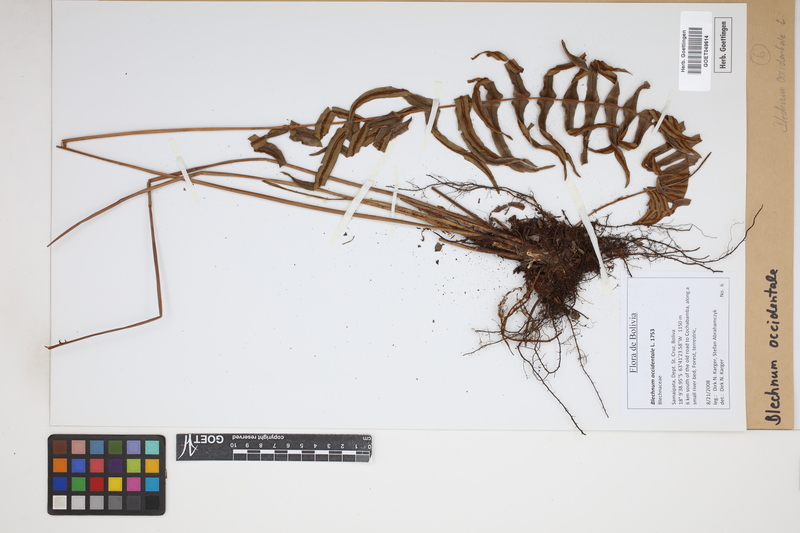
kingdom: Plantae
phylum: Tracheophyta
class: Polypodiopsida
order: Polypodiales
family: Blechnaceae
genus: Blechnum
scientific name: Blechnum occidentale
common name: Hammock fern
